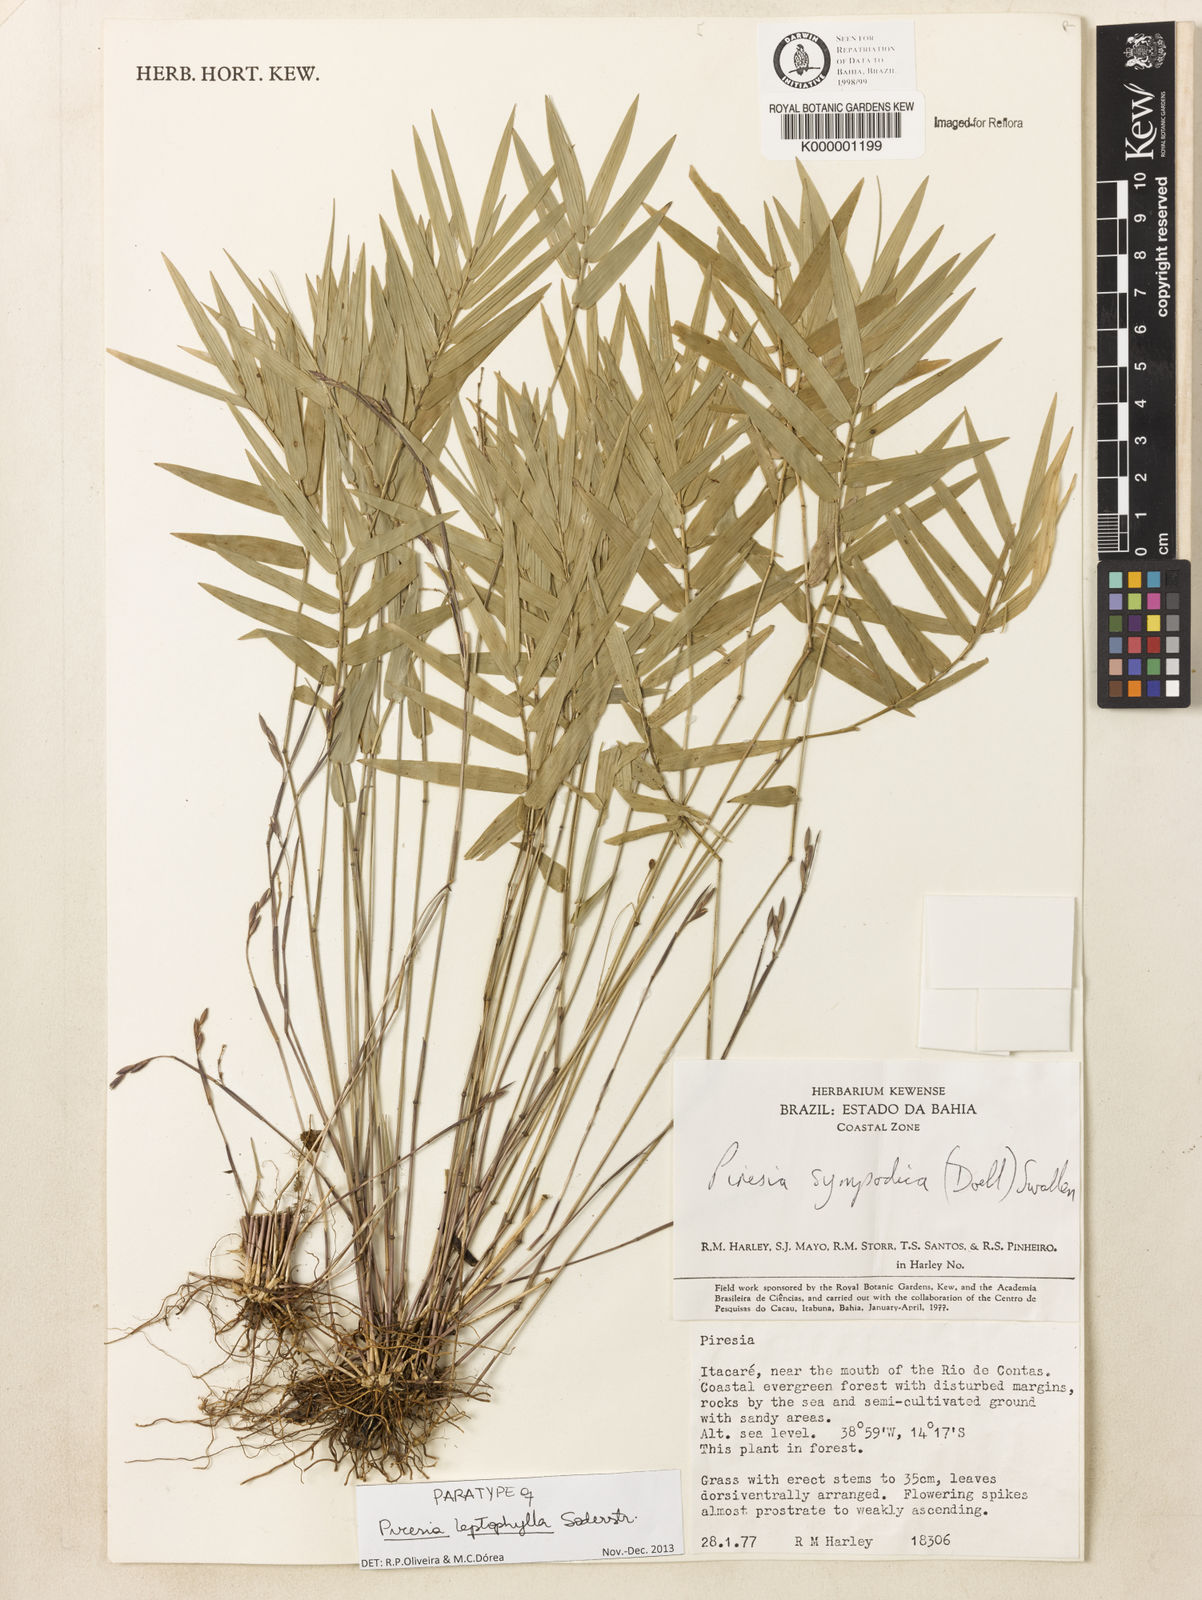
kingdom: Plantae
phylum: Tracheophyta
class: Liliopsida
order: Poales
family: Poaceae
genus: Piresia
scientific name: Piresia leptophylla
